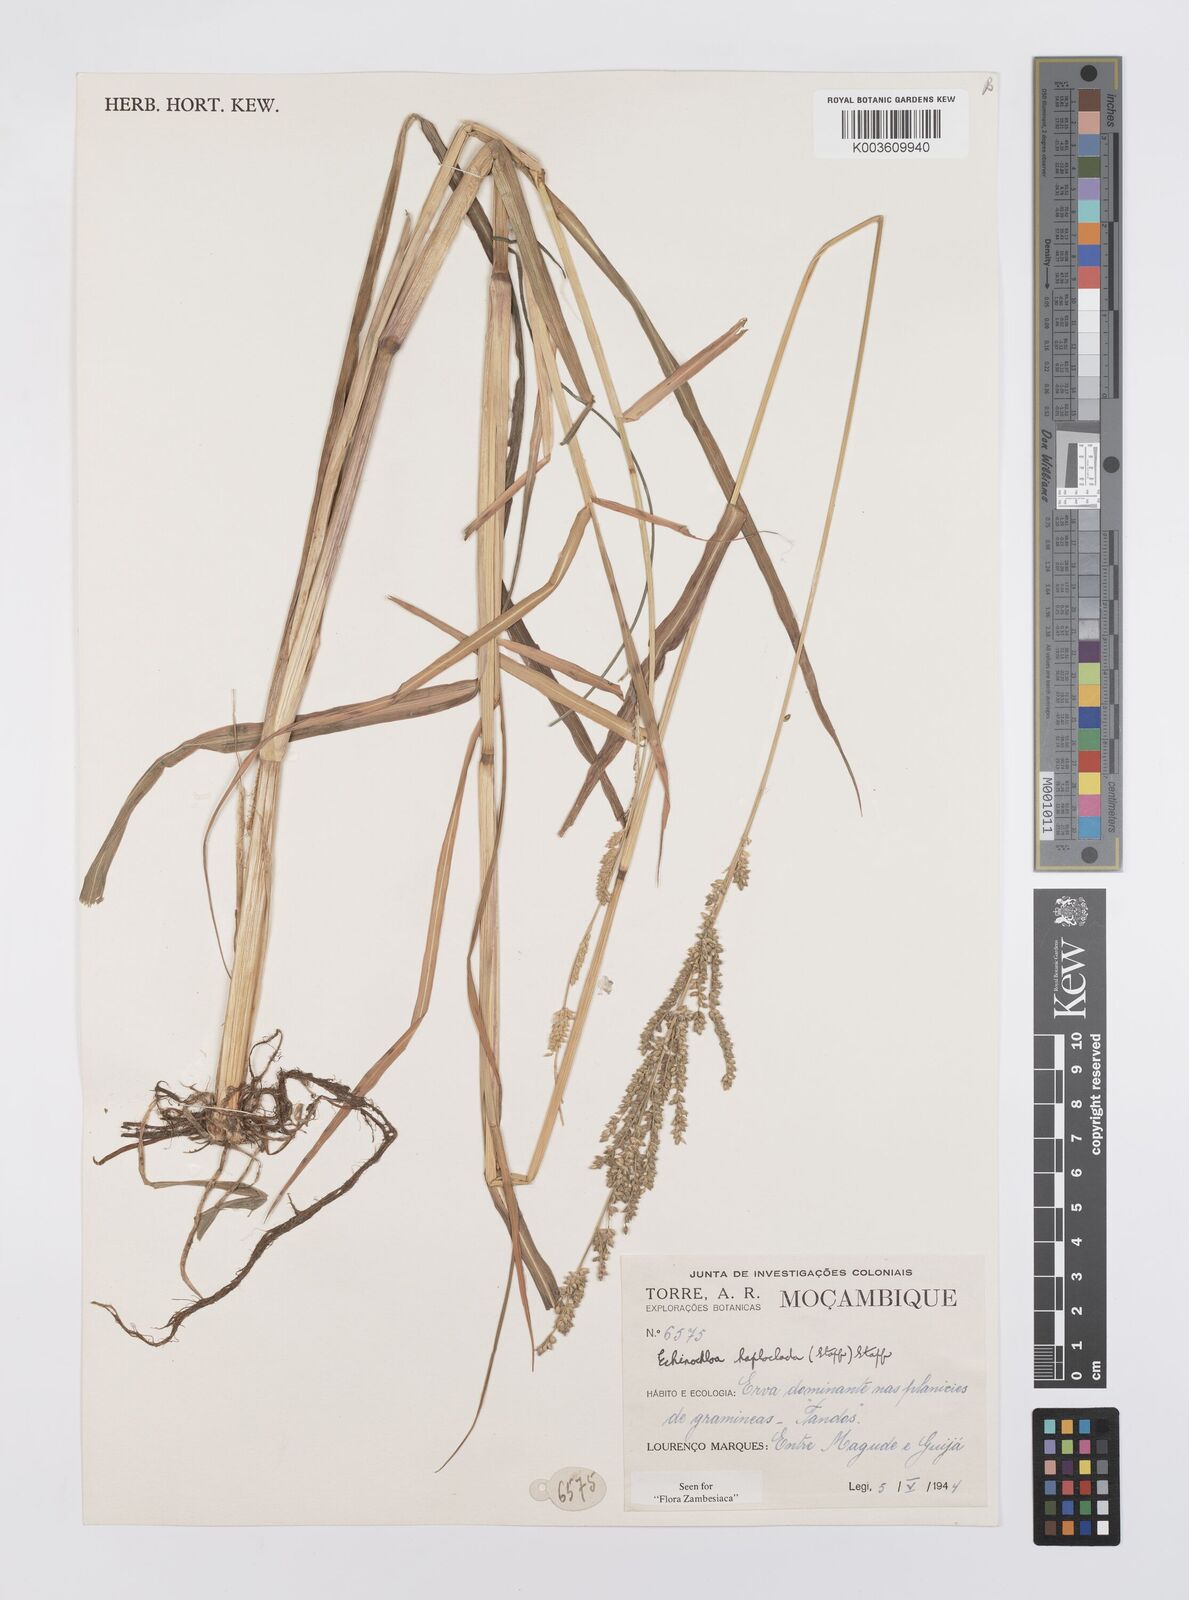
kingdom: Plantae
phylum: Tracheophyta
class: Liliopsida
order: Poales
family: Poaceae
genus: Echinochloa
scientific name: Echinochloa haploclada
